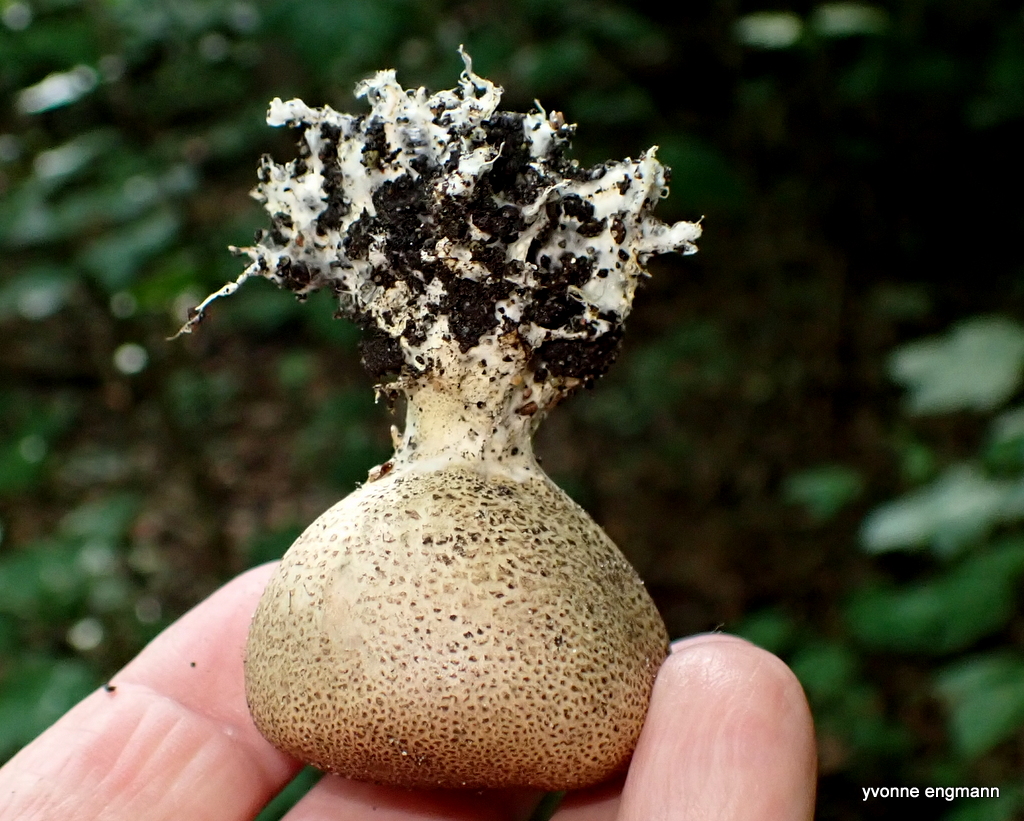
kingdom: Fungi
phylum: Basidiomycota
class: Agaricomycetes
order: Boletales
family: Sclerodermataceae
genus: Scleroderma
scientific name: Scleroderma
